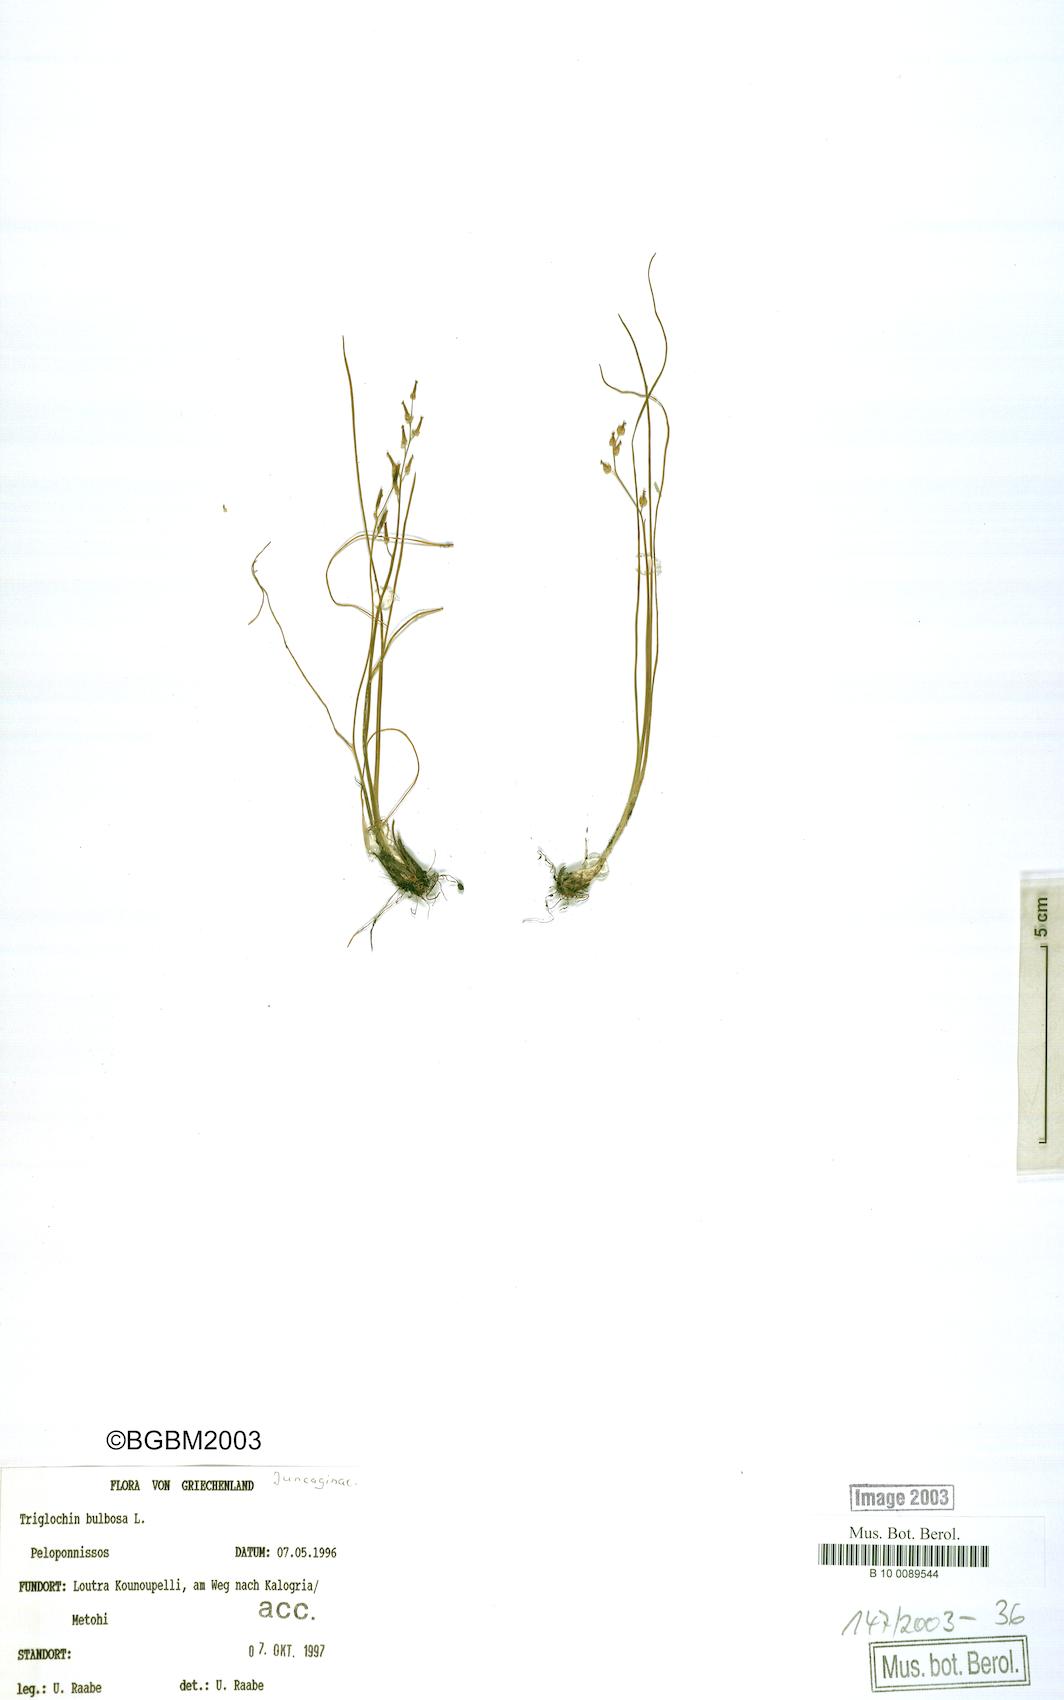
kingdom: Plantae
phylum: Tracheophyta
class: Liliopsida
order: Alismatales
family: Juncaginaceae
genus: Triglochin
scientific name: Triglochin bulbosa
